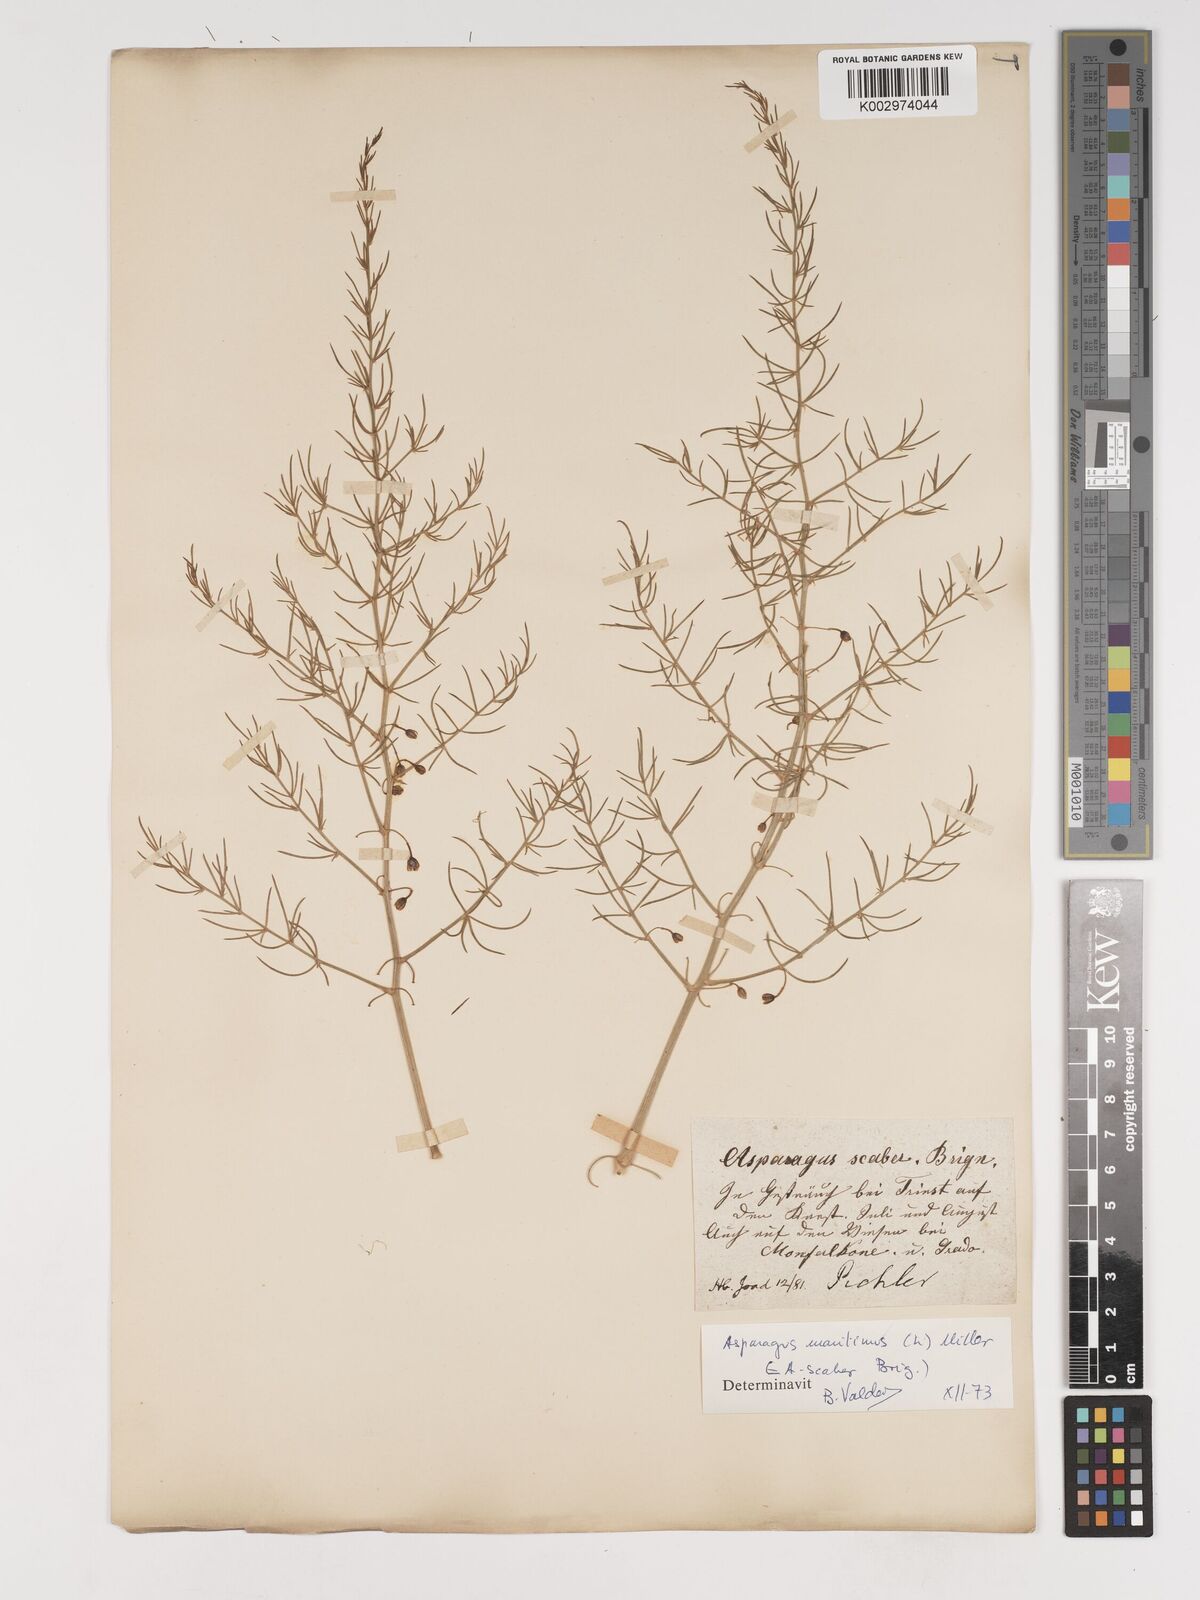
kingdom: Plantae
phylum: Tracheophyta
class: Liliopsida
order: Asparagales
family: Asparagaceae
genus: Asparagus
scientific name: Asparagus maritimus
